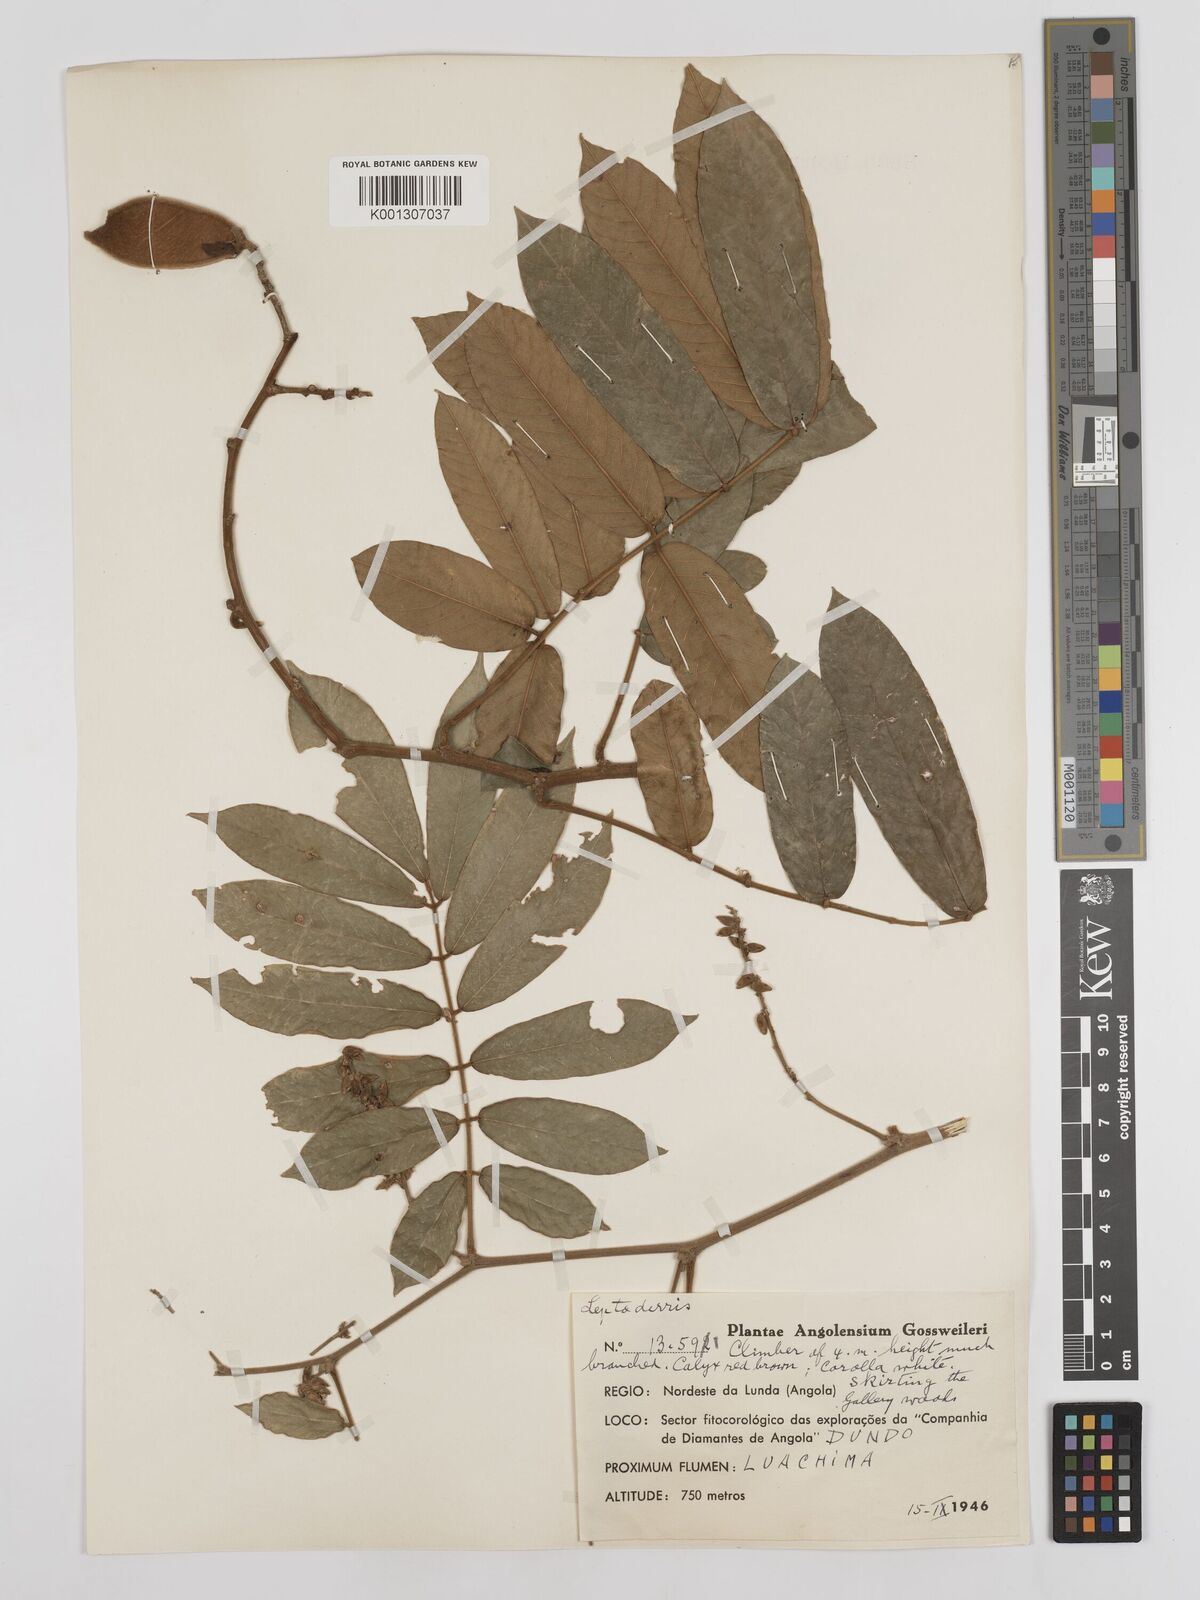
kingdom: Plantae
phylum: Tracheophyta
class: Magnoliopsida
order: Fabales
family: Fabaceae
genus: Millettia
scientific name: Millettia
